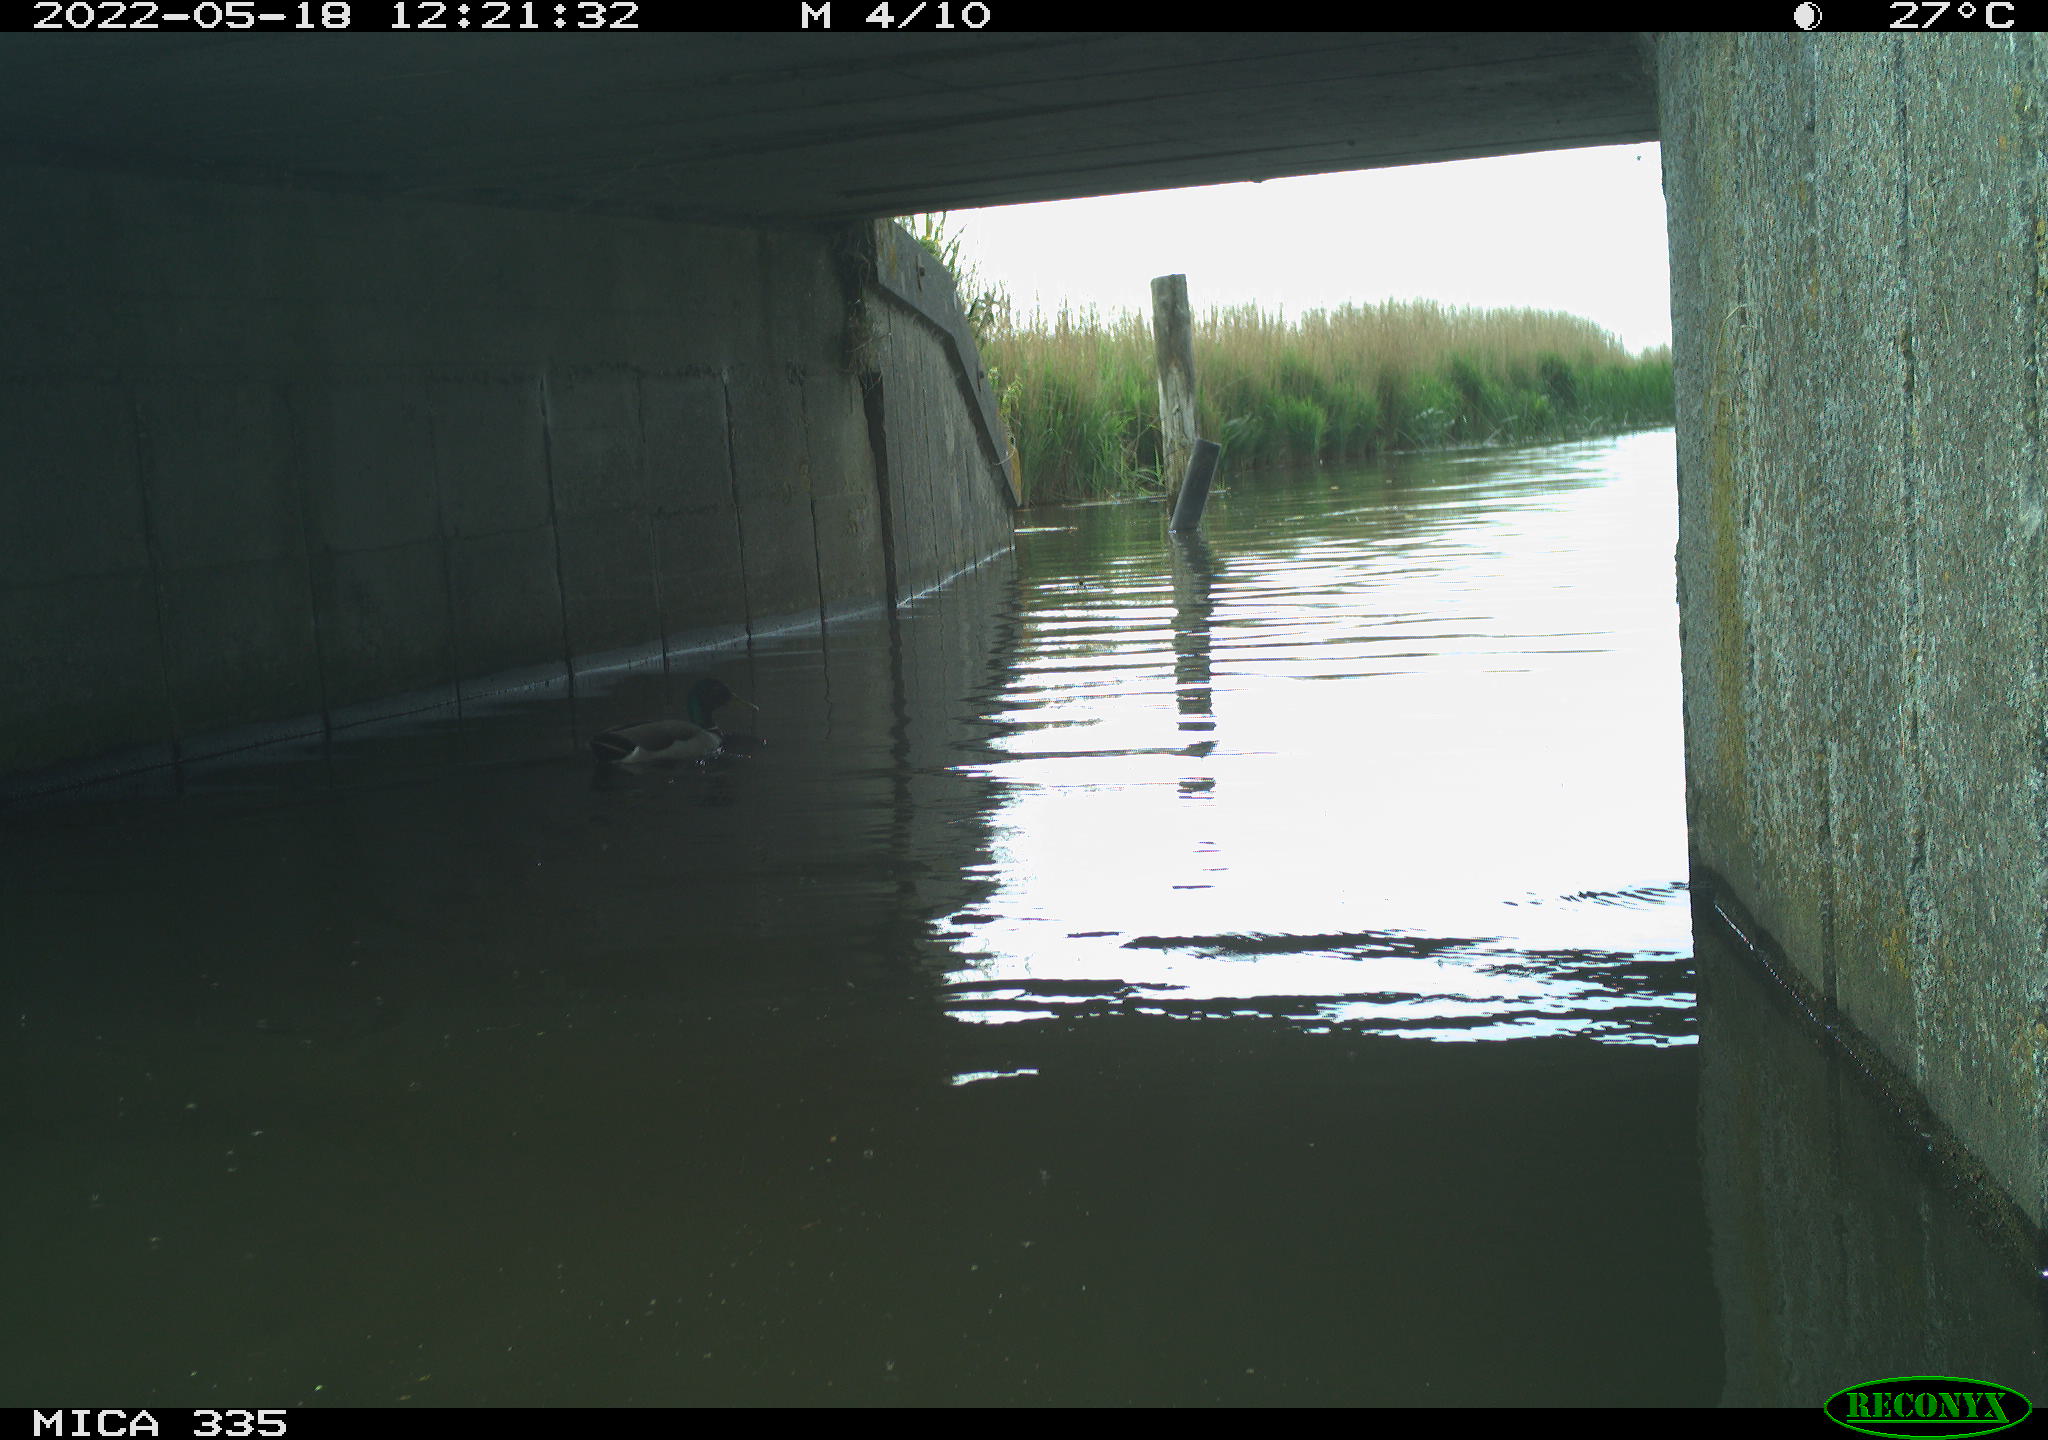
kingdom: Animalia
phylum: Chordata
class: Aves
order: Anseriformes
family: Anatidae
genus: Anas
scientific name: Anas platyrhynchos
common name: Mallard
